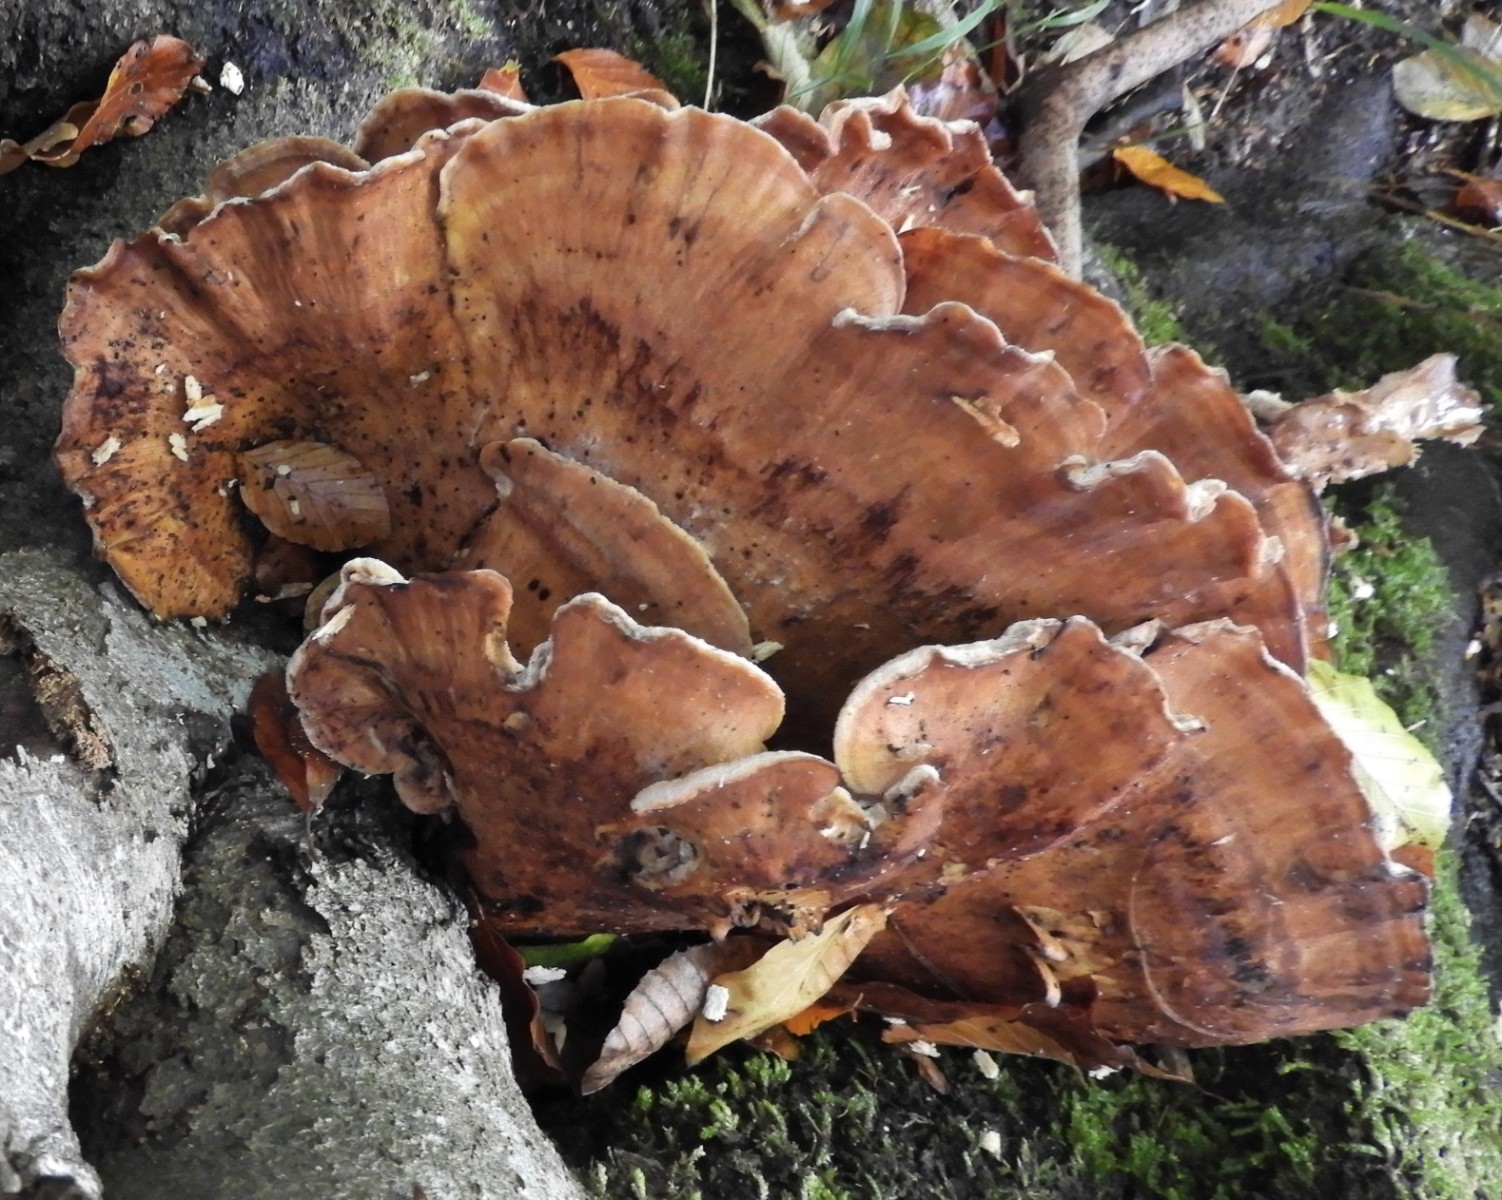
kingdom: Fungi
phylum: Basidiomycota
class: Agaricomycetes
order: Polyporales
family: Meripilaceae
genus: Meripilus
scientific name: Meripilus giganteus
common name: kæmpeporesvamp
